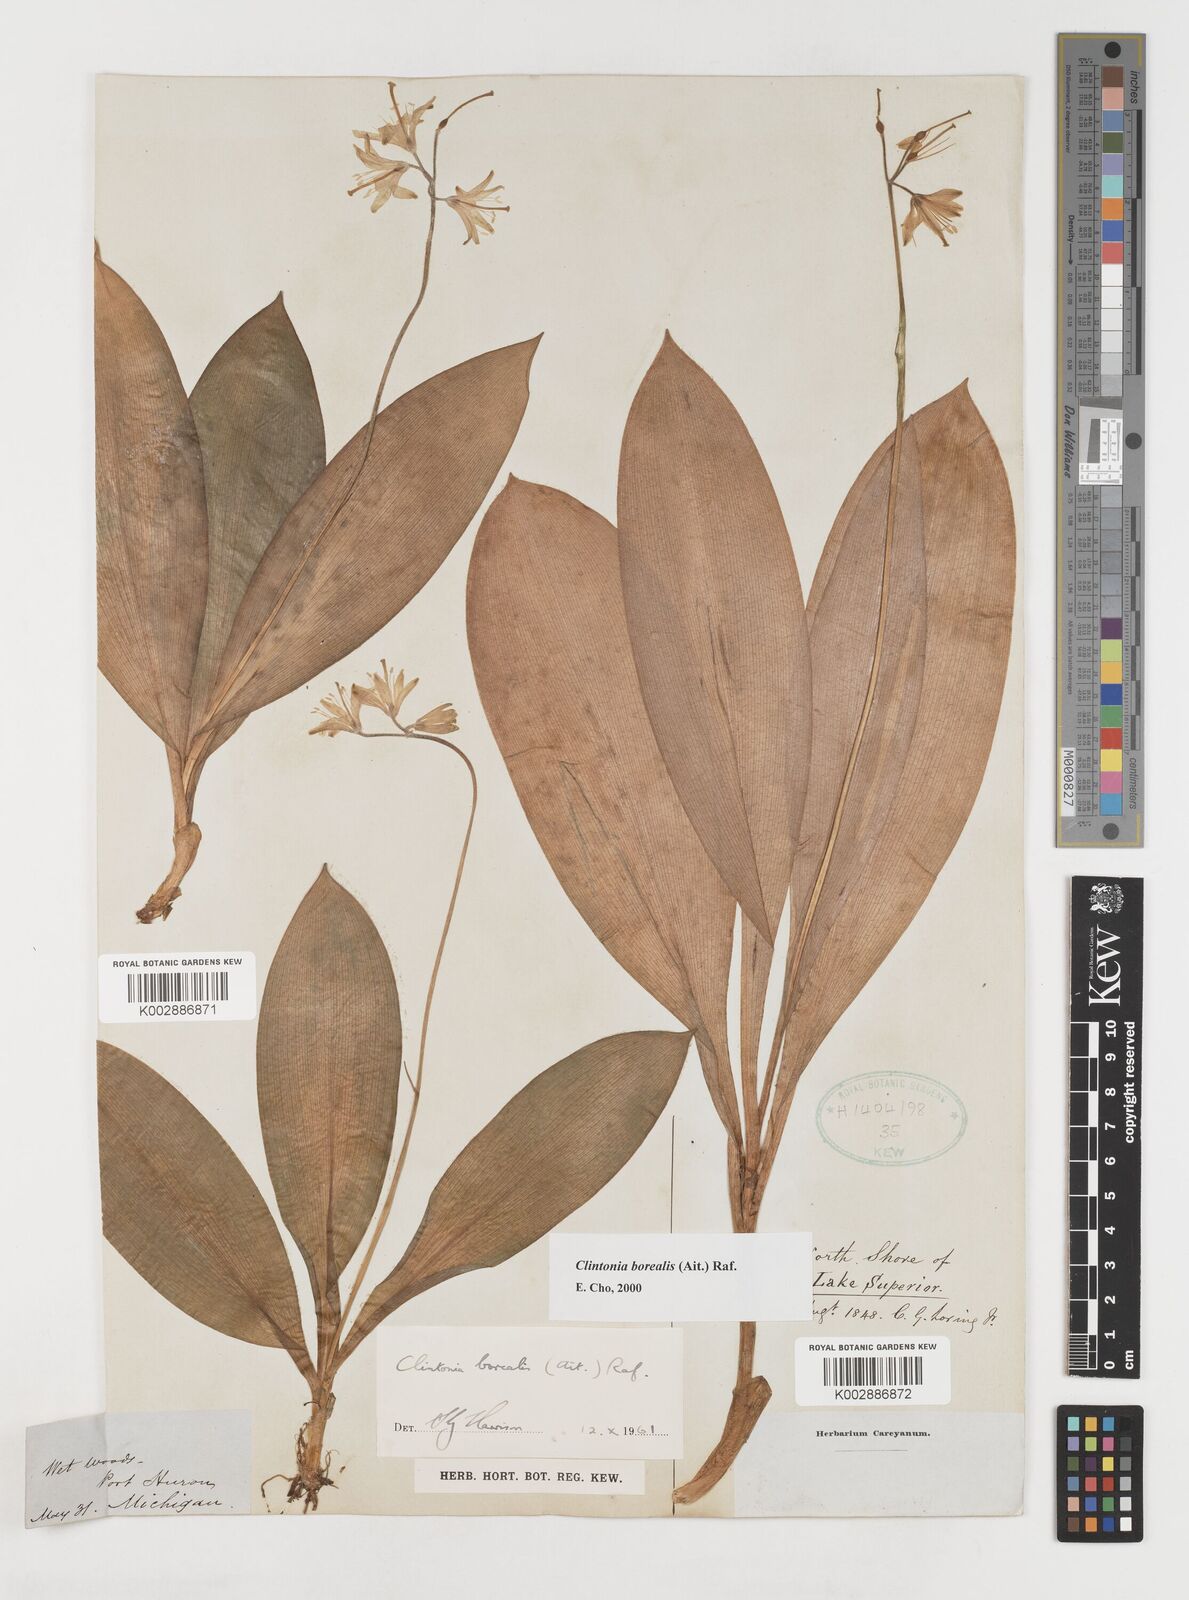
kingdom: Plantae
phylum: Tracheophyta
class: Liliopsida
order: Liliales
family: Liliaceae
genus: Clintonia
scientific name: Clintonia borealis
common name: Yellow clintonia
